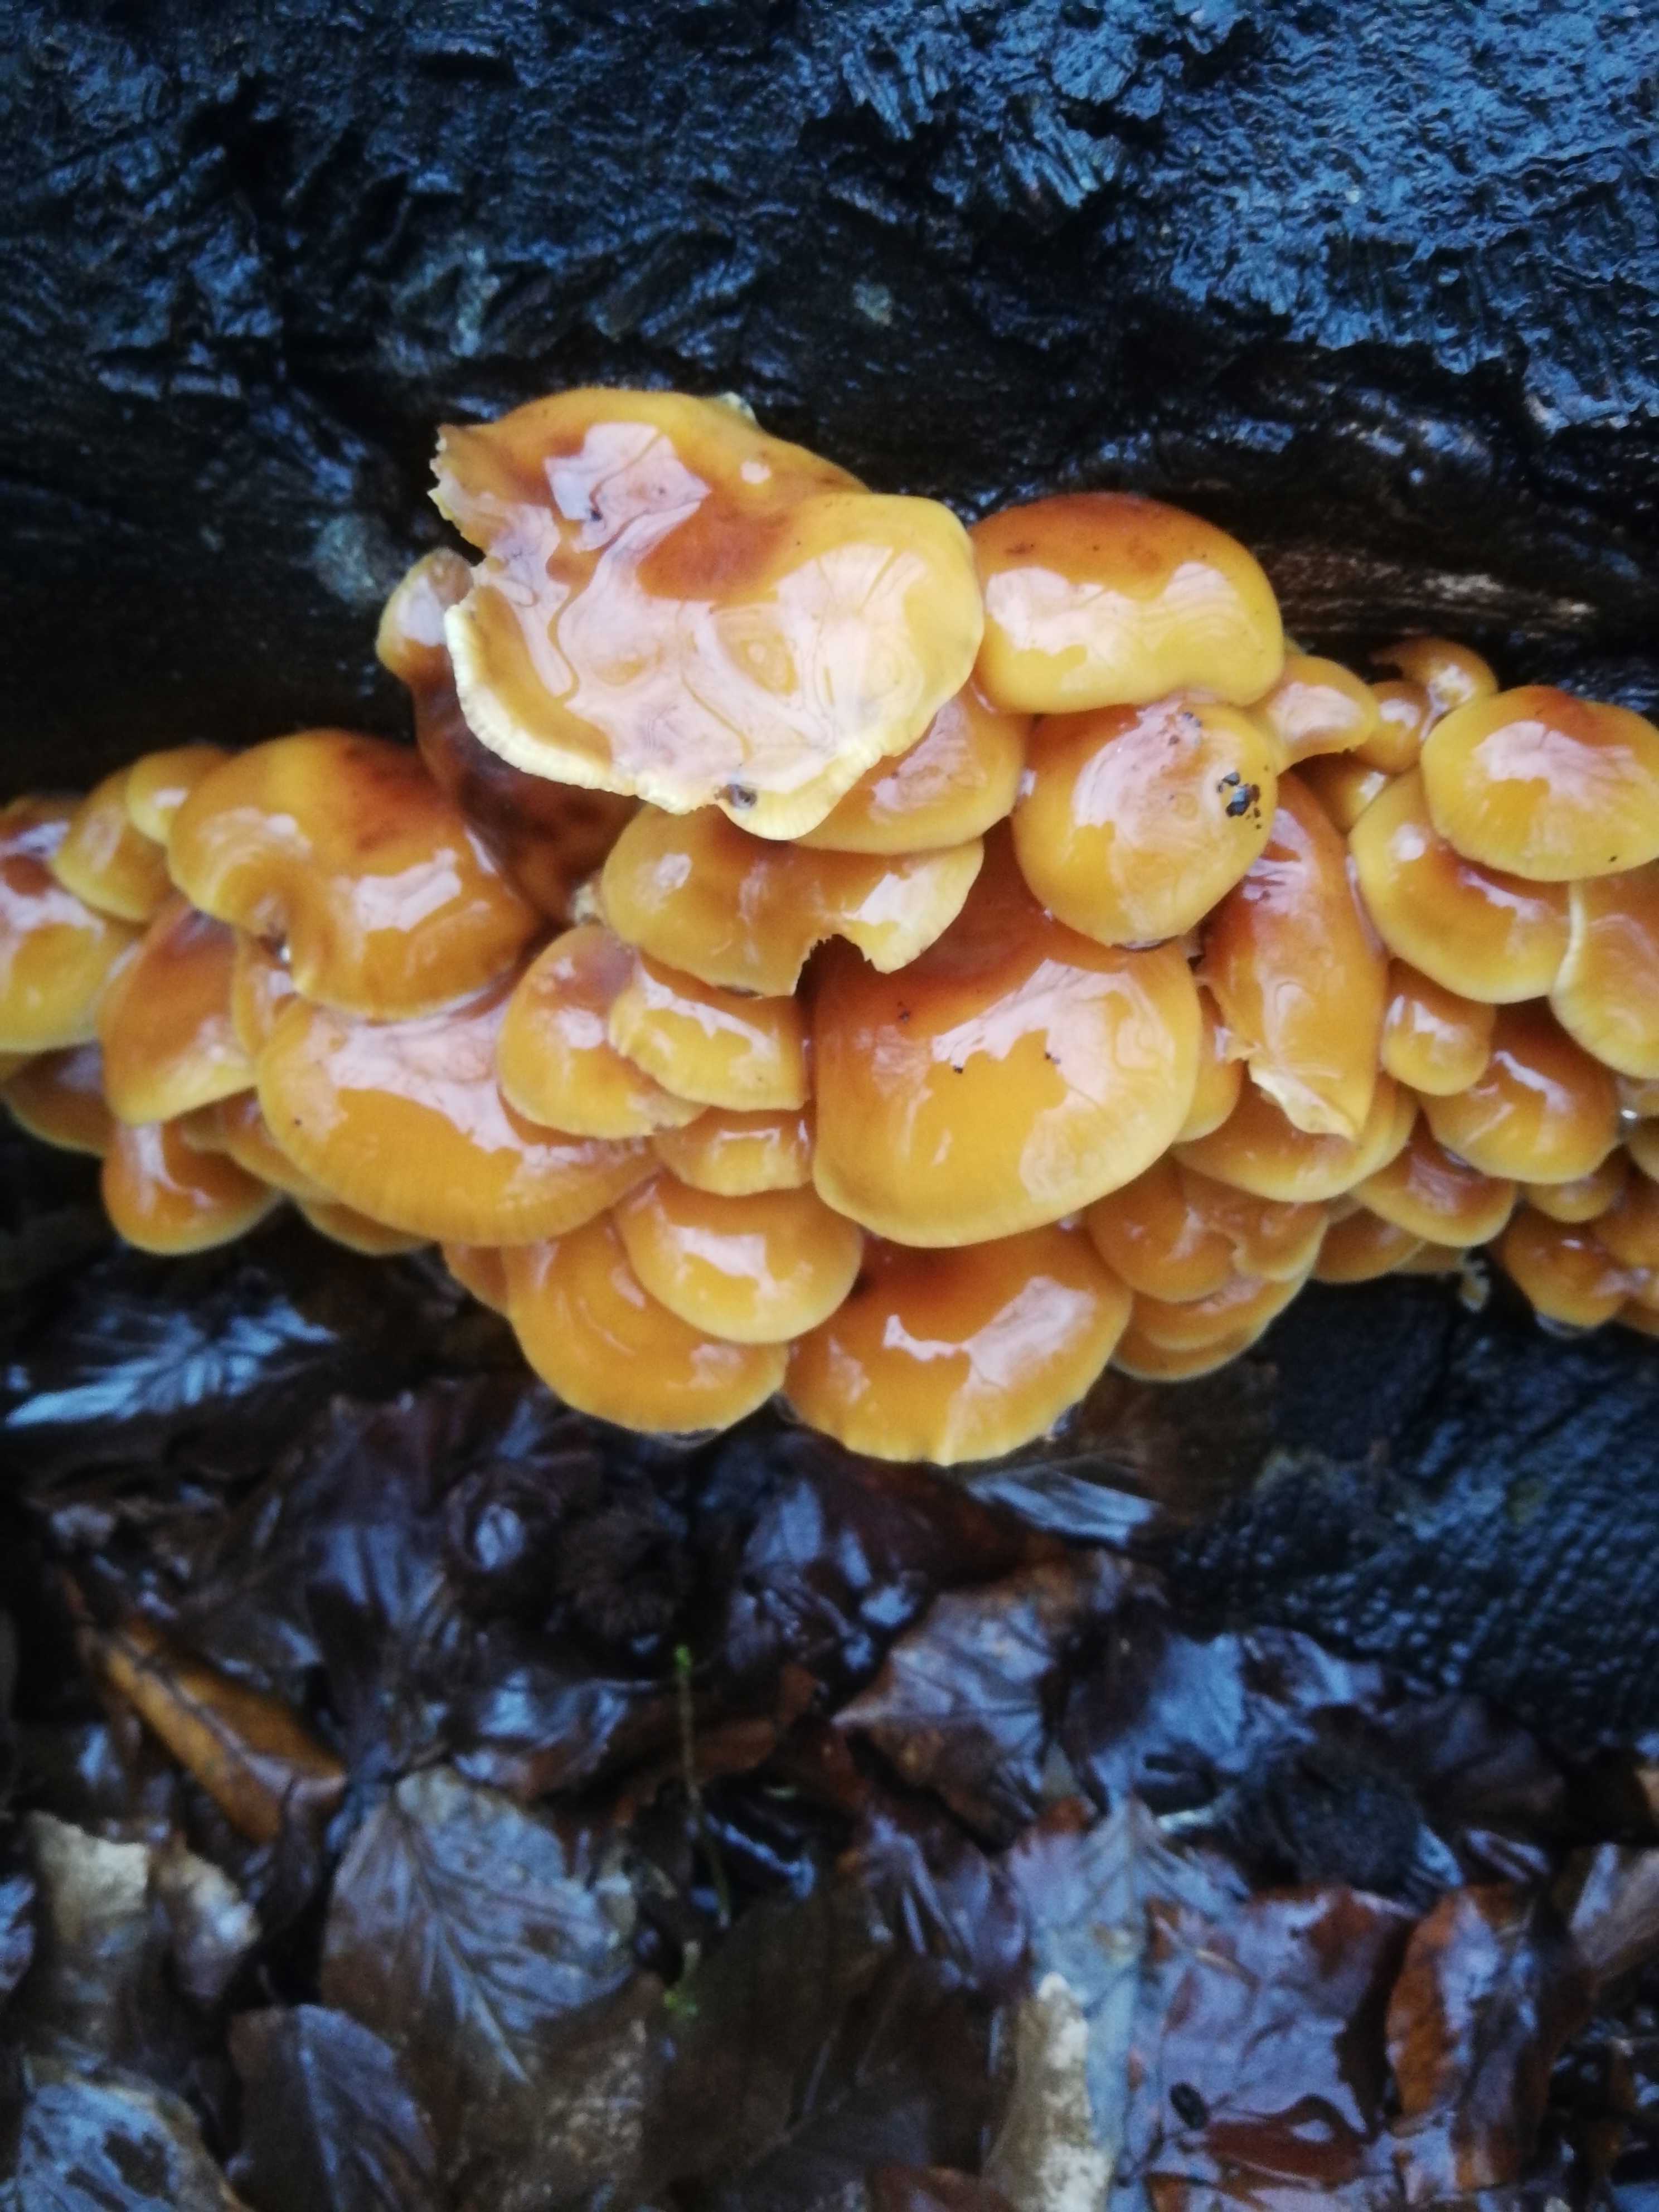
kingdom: Fungi
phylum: Basidiomycota
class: Agaricomycetes
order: Agaricales
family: Physalacriaceae
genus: Flammulina
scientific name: Flammulina velutipes
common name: gul fløjlsfod
